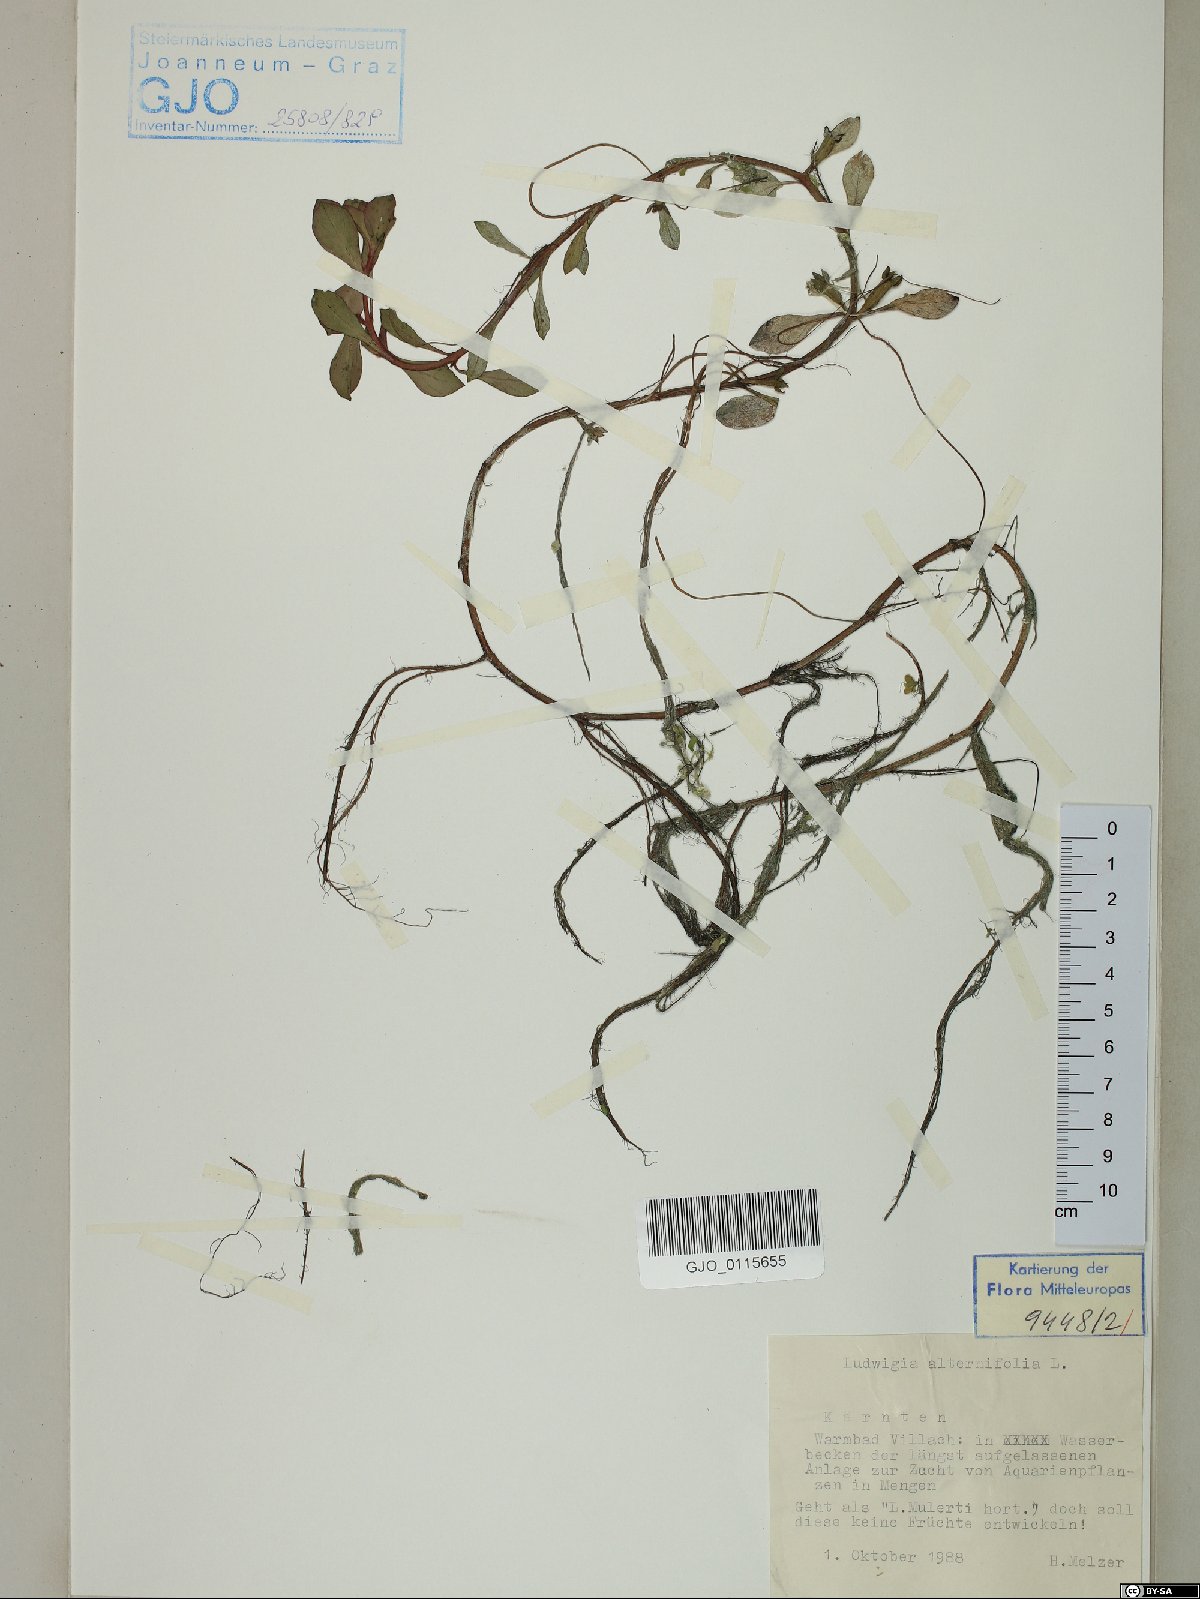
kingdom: Plantae
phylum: Tracheophyta
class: Magnoliopsida
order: Myrtales
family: Onagraceae
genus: Ludwigia
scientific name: Ludwigia alternifolia
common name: Rattlebox
